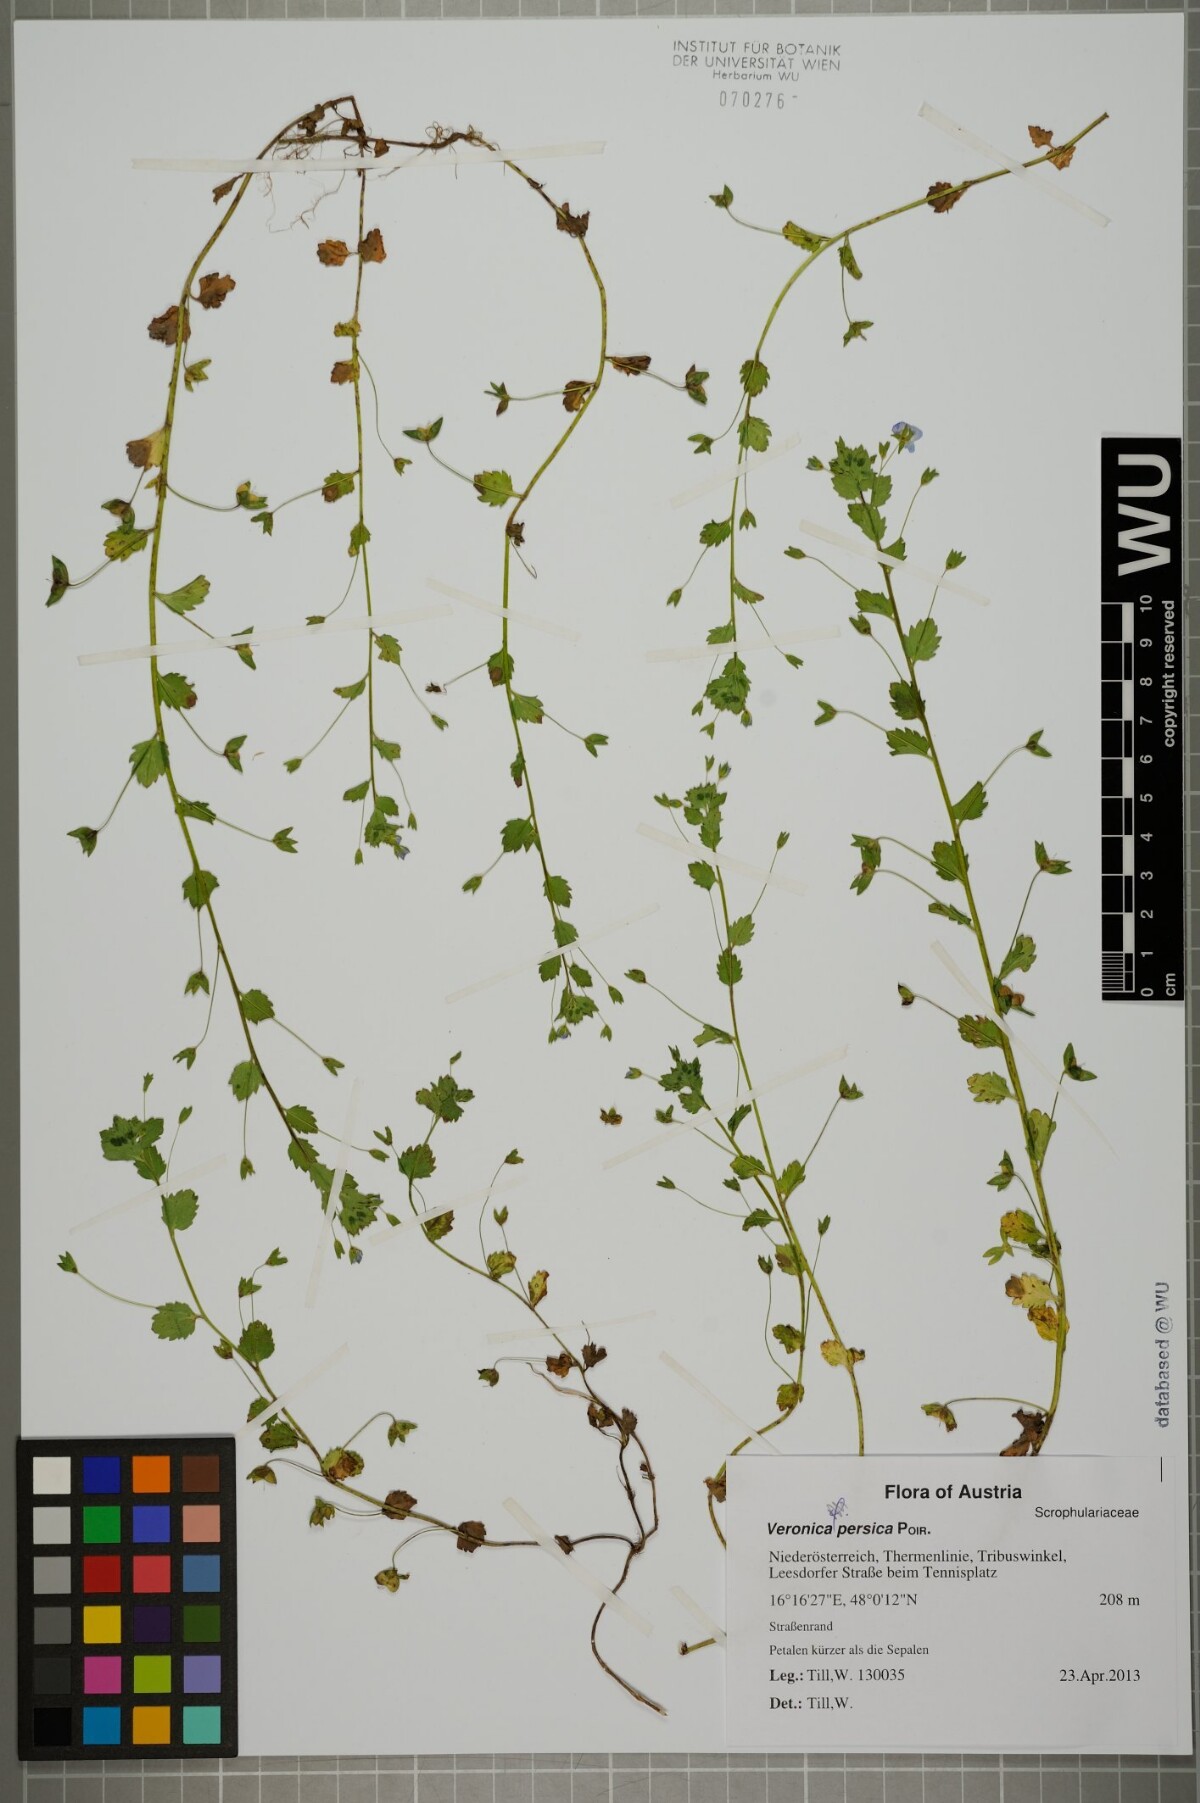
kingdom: Plantae
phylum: Tracheophyta
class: Magnoliopsida
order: Lamiales
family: Plantaginaceae
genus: Veronica
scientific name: Veronica persica
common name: Common field-speedwell
